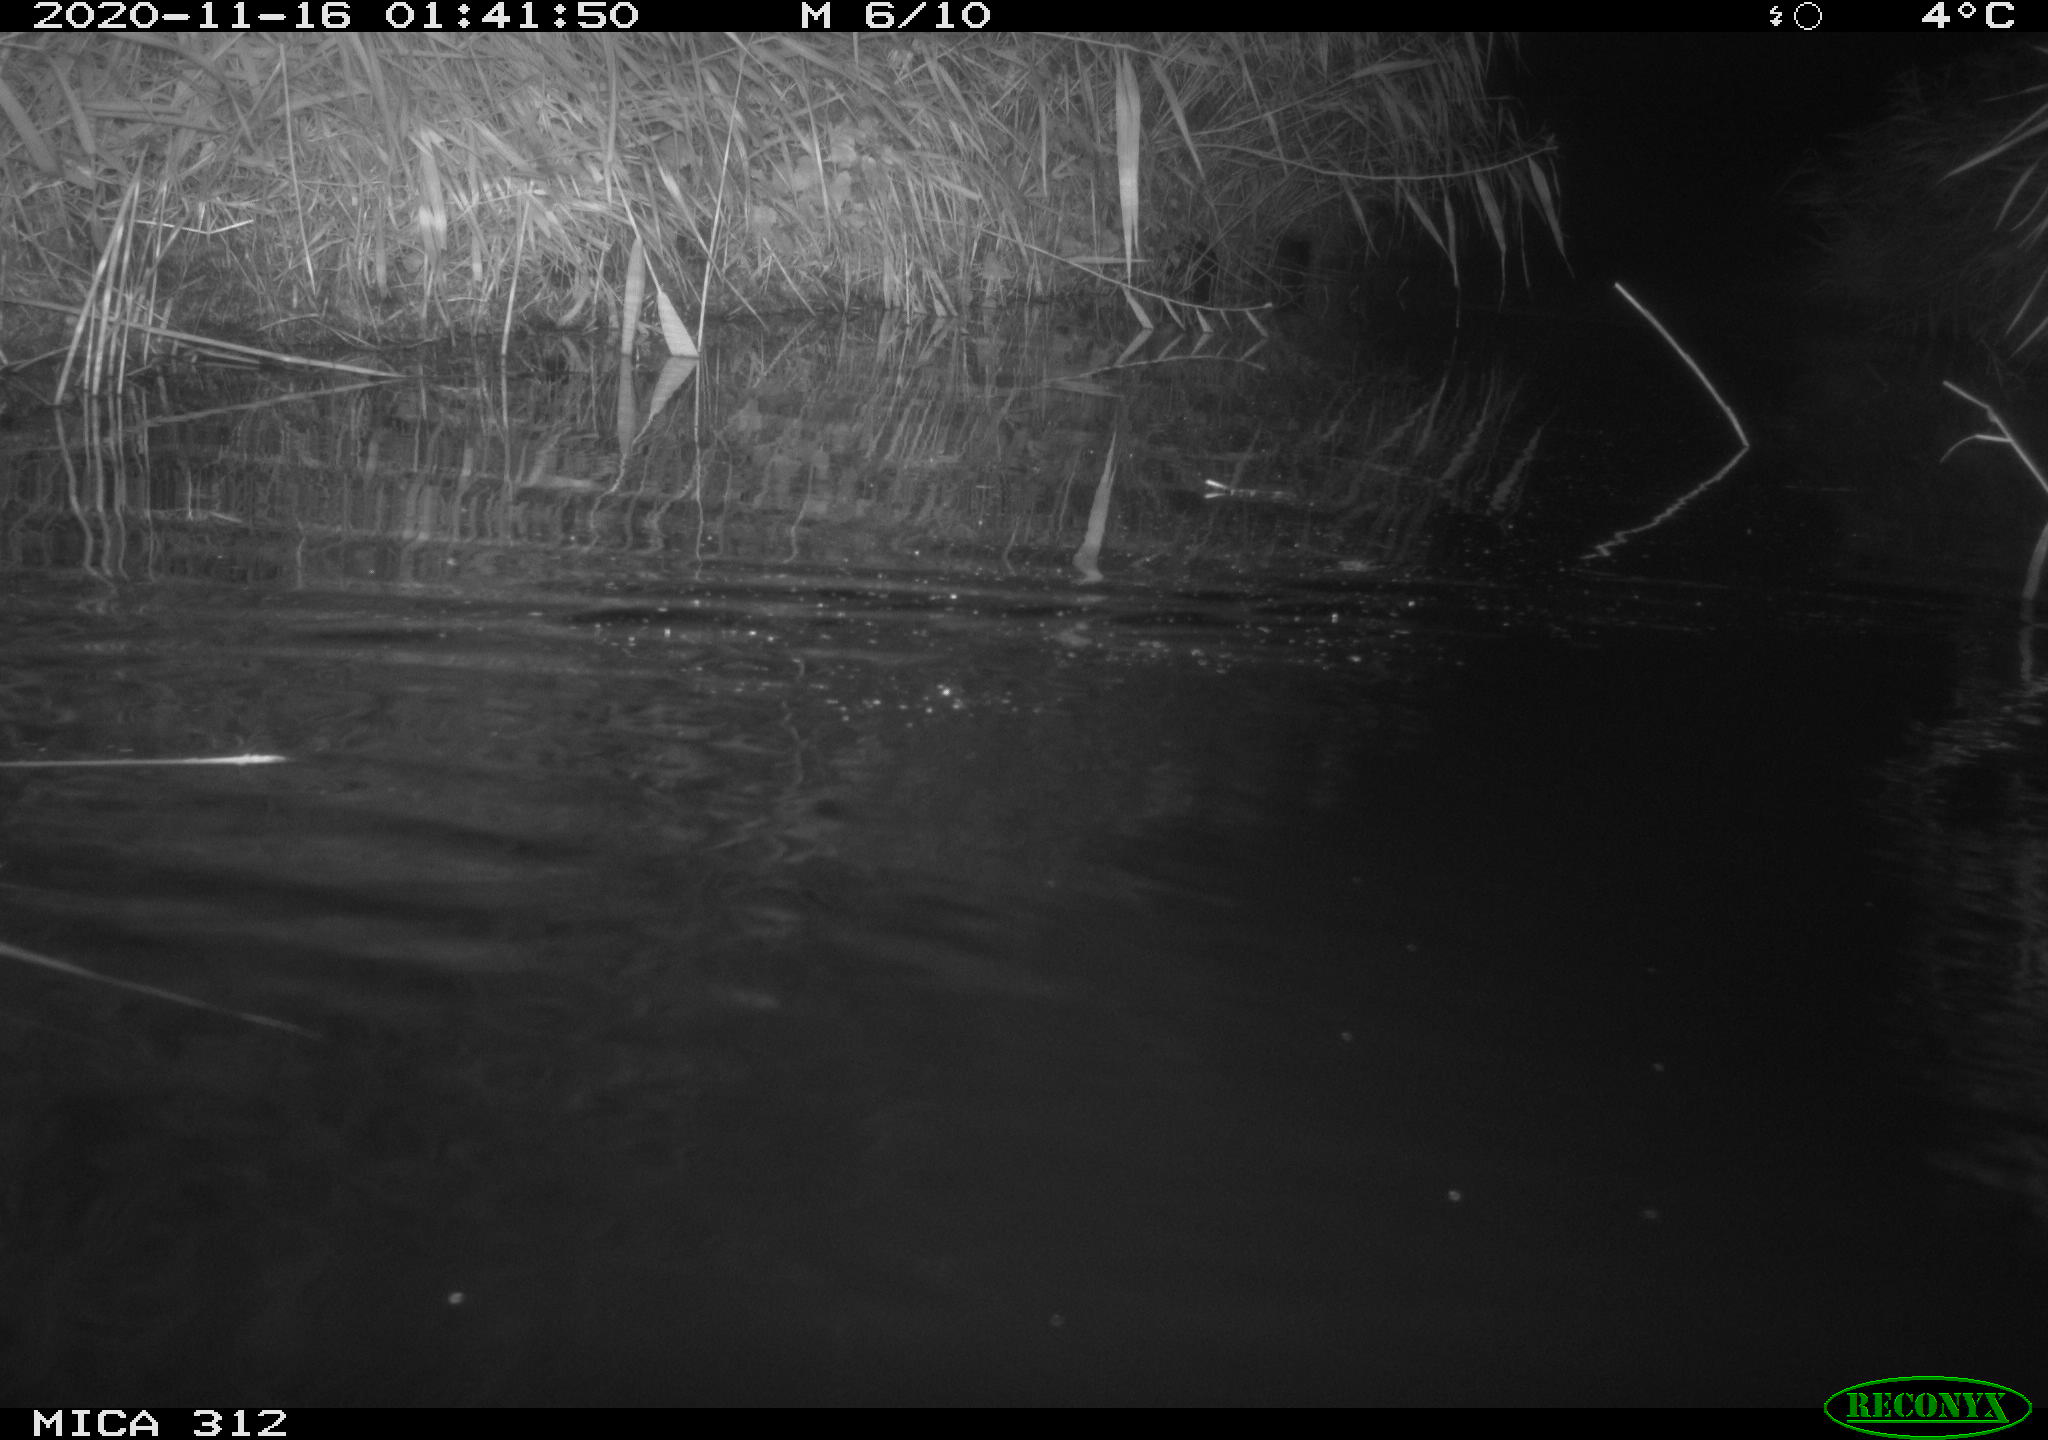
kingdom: Animalia
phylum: Chordata
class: Mammalia
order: Rodentia
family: Muridae
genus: Rattus
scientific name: Rattus norvegicus
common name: Brown rat
